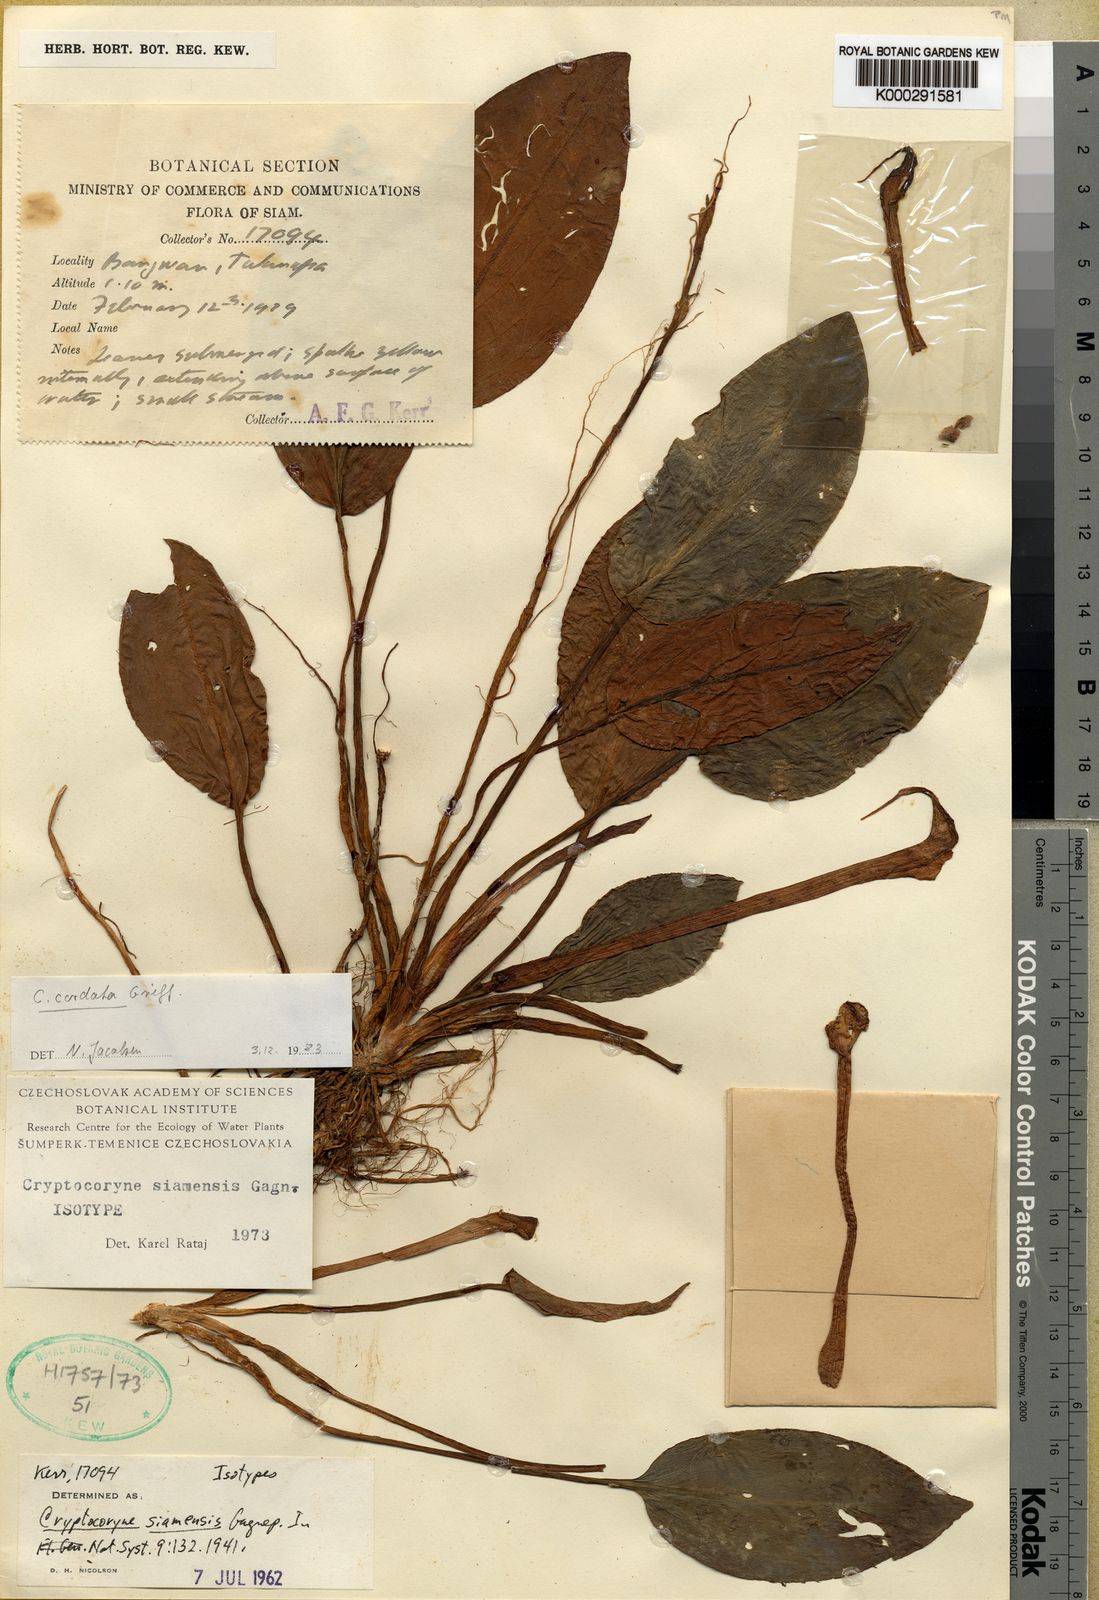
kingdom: Plantae
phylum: Tracheophyta
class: Liliopsida
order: Alismatales
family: Araceae
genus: Cryptocoryne
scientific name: Cryptocoryne cordata
